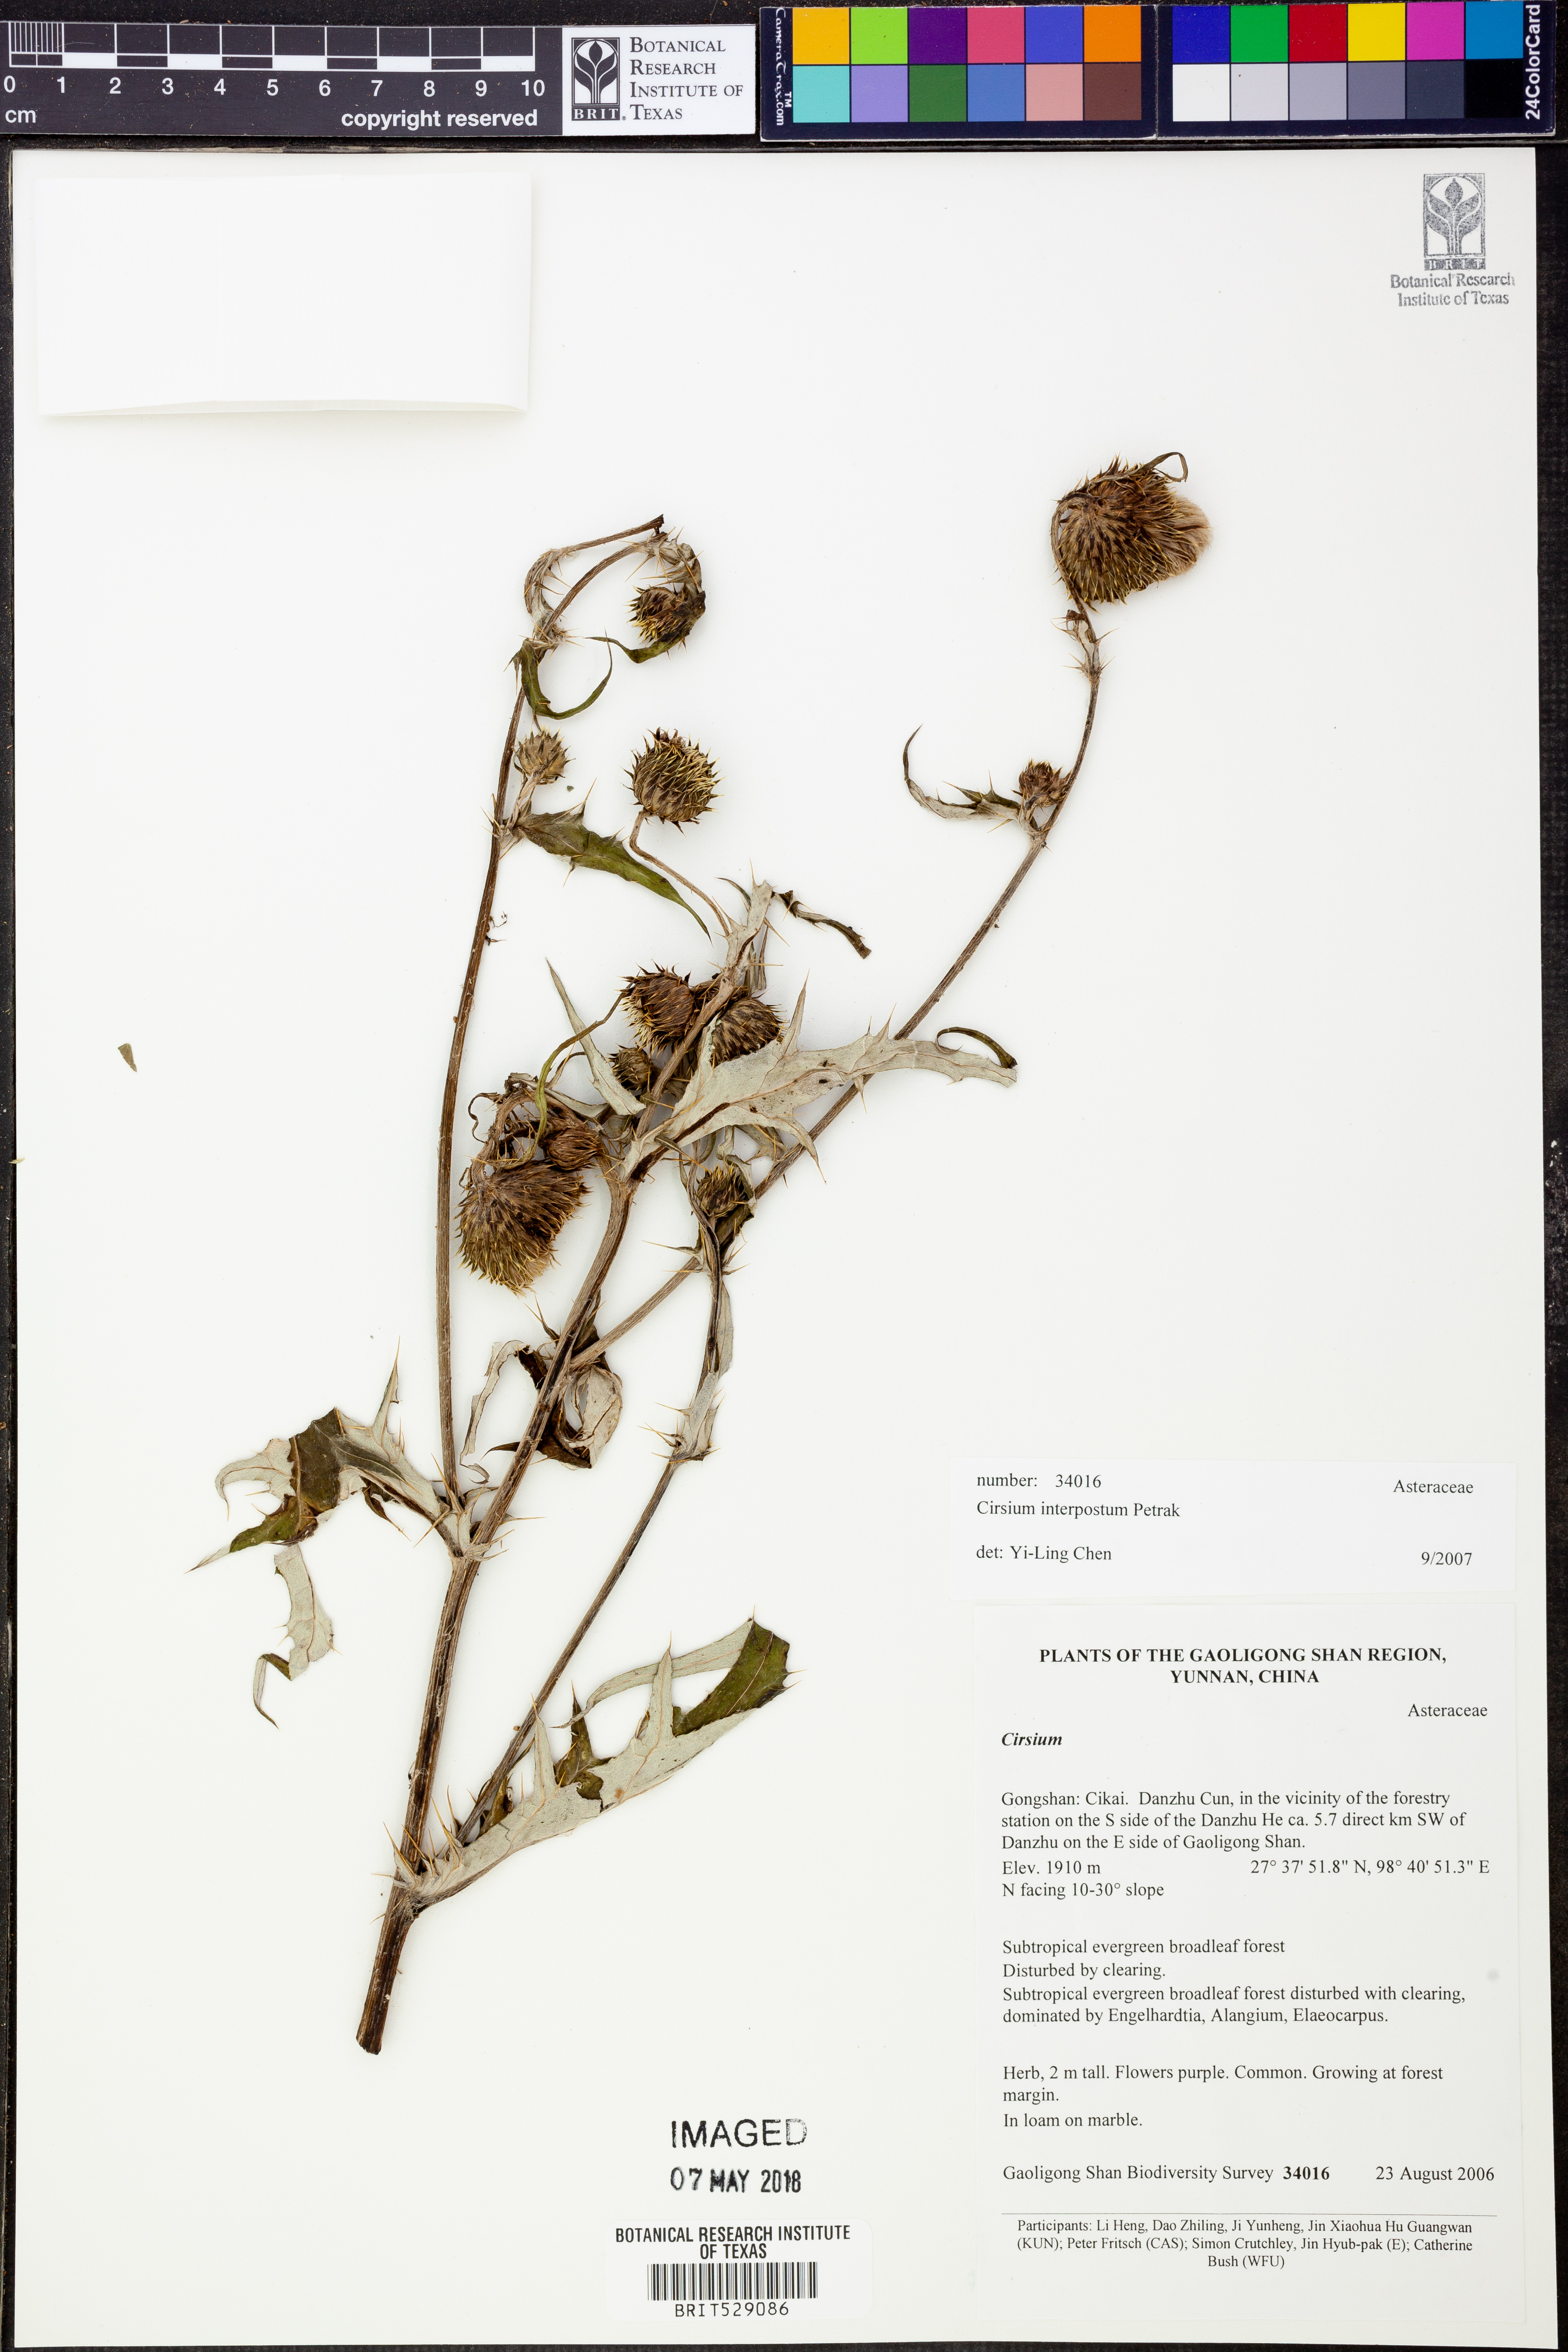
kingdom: Plantae
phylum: Tracheophyta
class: Magnoliopsida
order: Asterales
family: Asteraceae
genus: Cirsium
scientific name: Cirsium lipskyi
